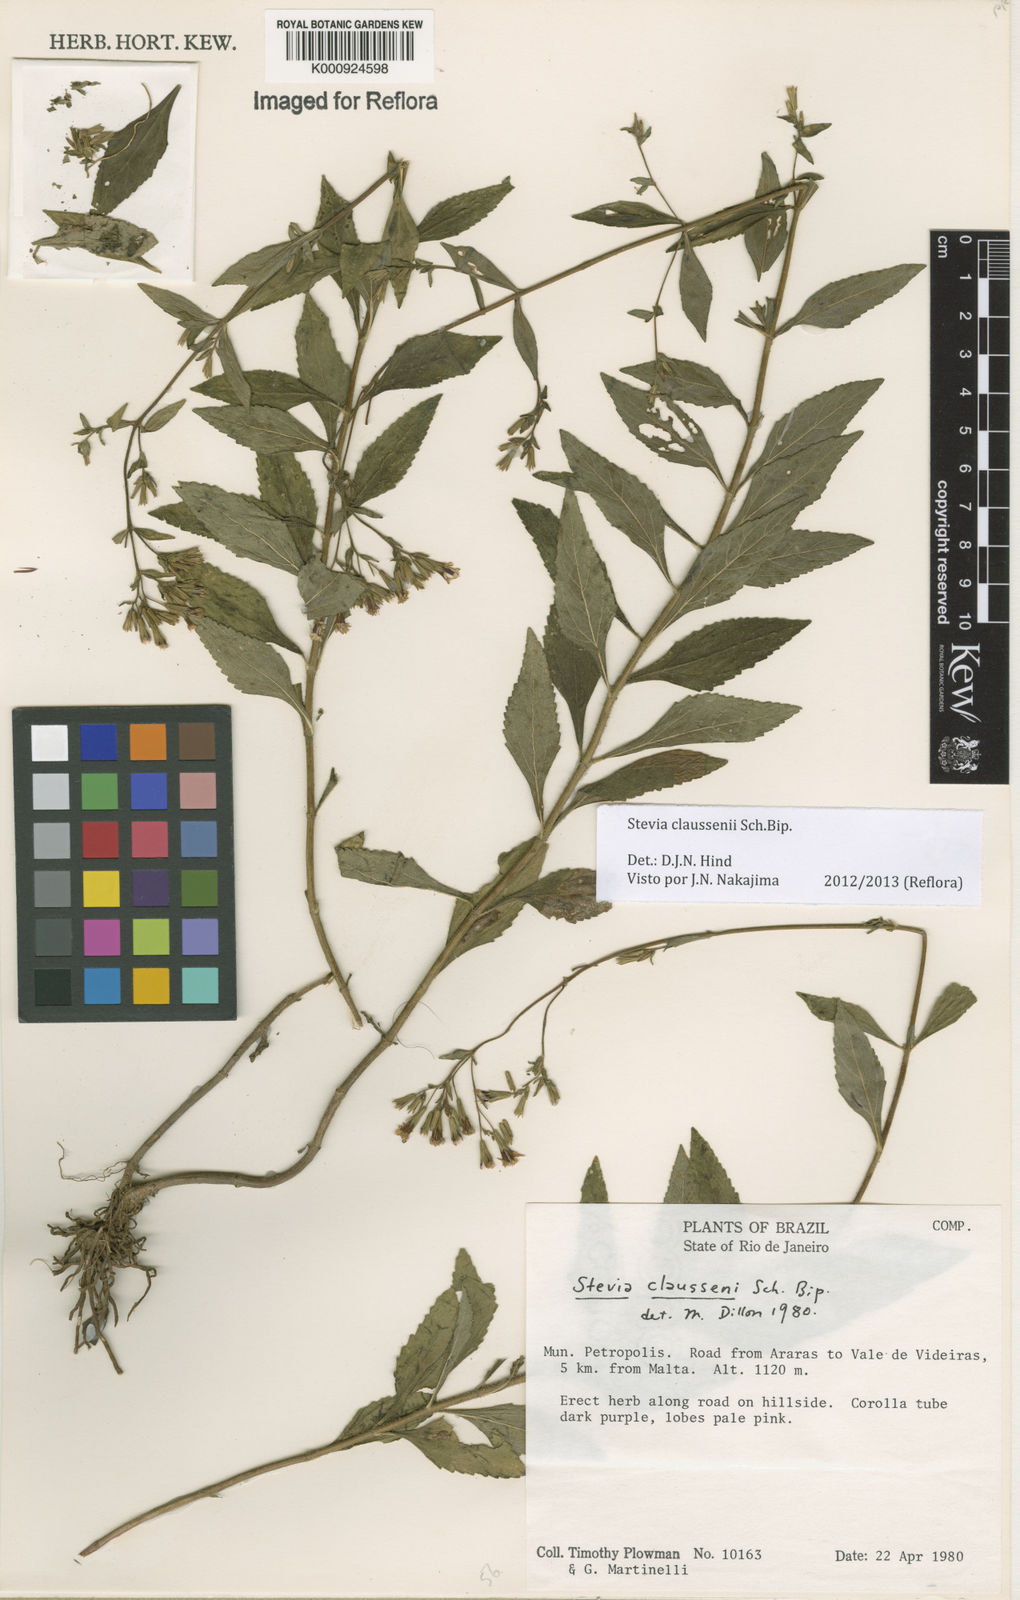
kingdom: Plantae
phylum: Tracheophyta
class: Magnoliopsida
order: Asterales
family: Asteraceae
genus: Stevia
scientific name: Stevia claussenii
